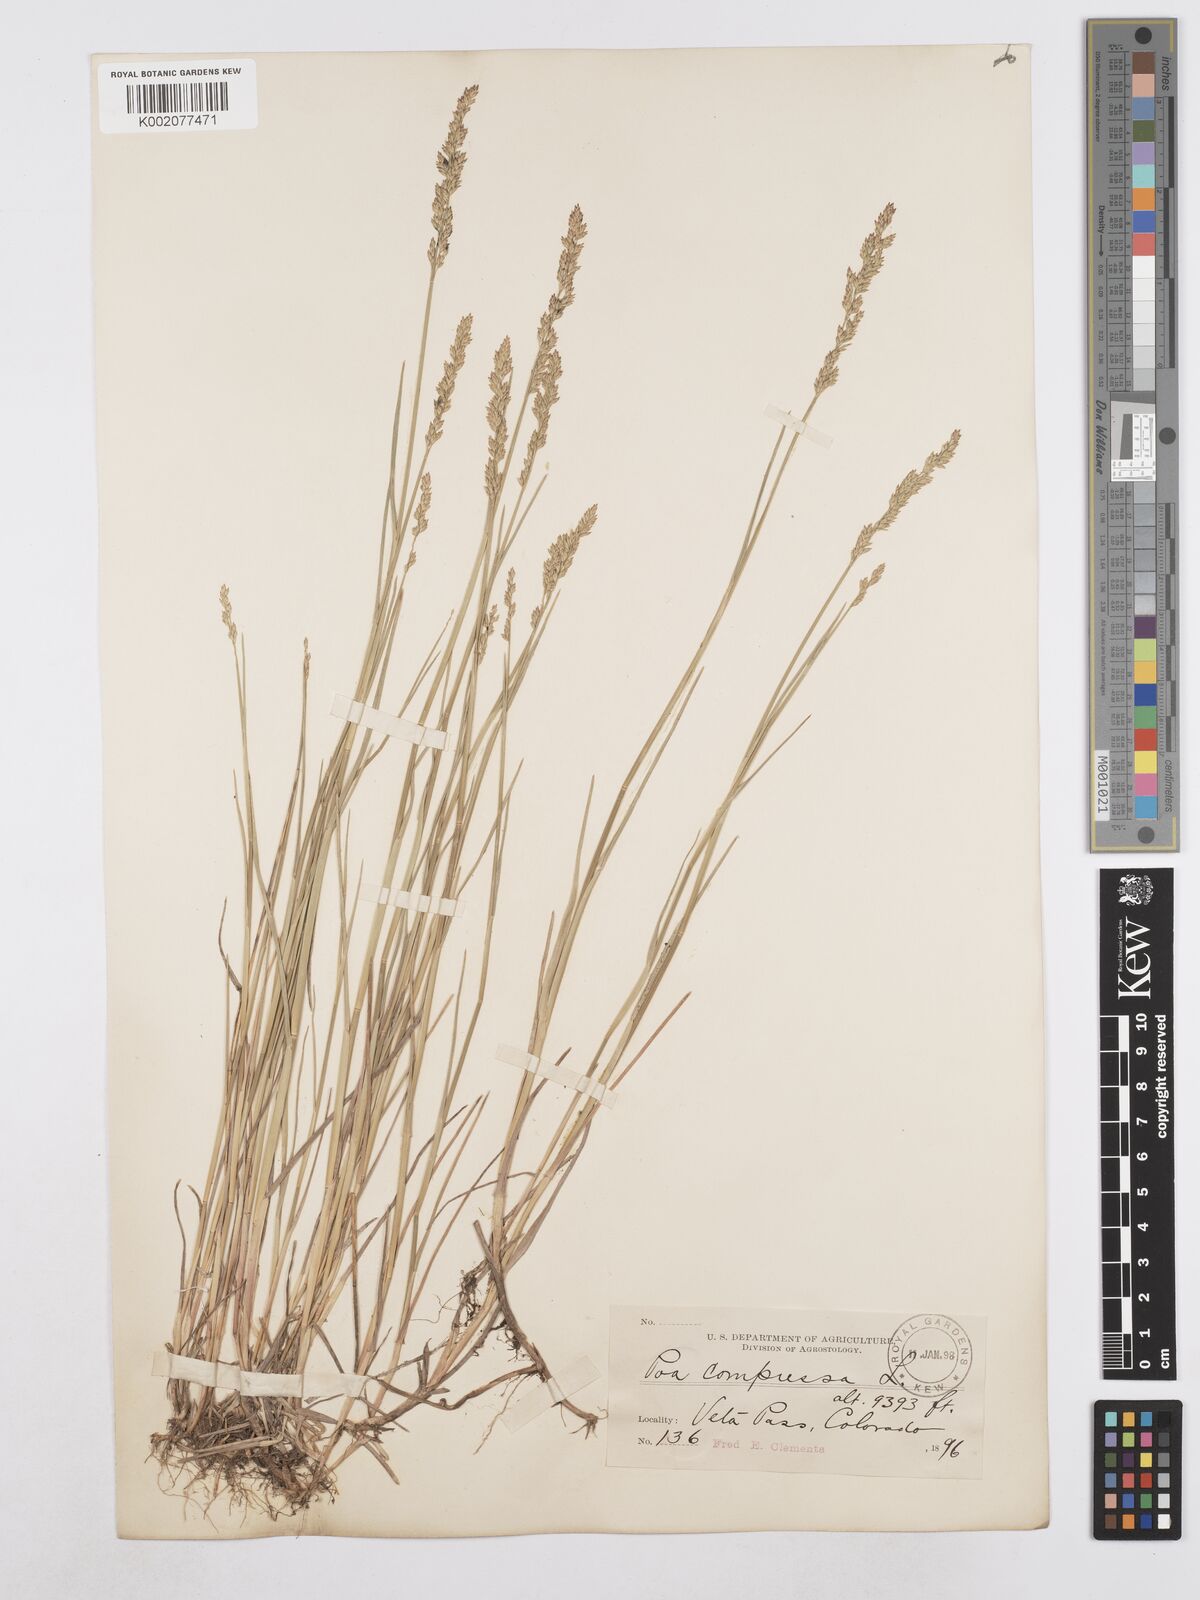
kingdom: Plantae
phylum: Tracheophyta
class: Liliopsida
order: Poales
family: Poaceae
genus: Poa
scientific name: Poa compressa
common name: Canada bluegrass
